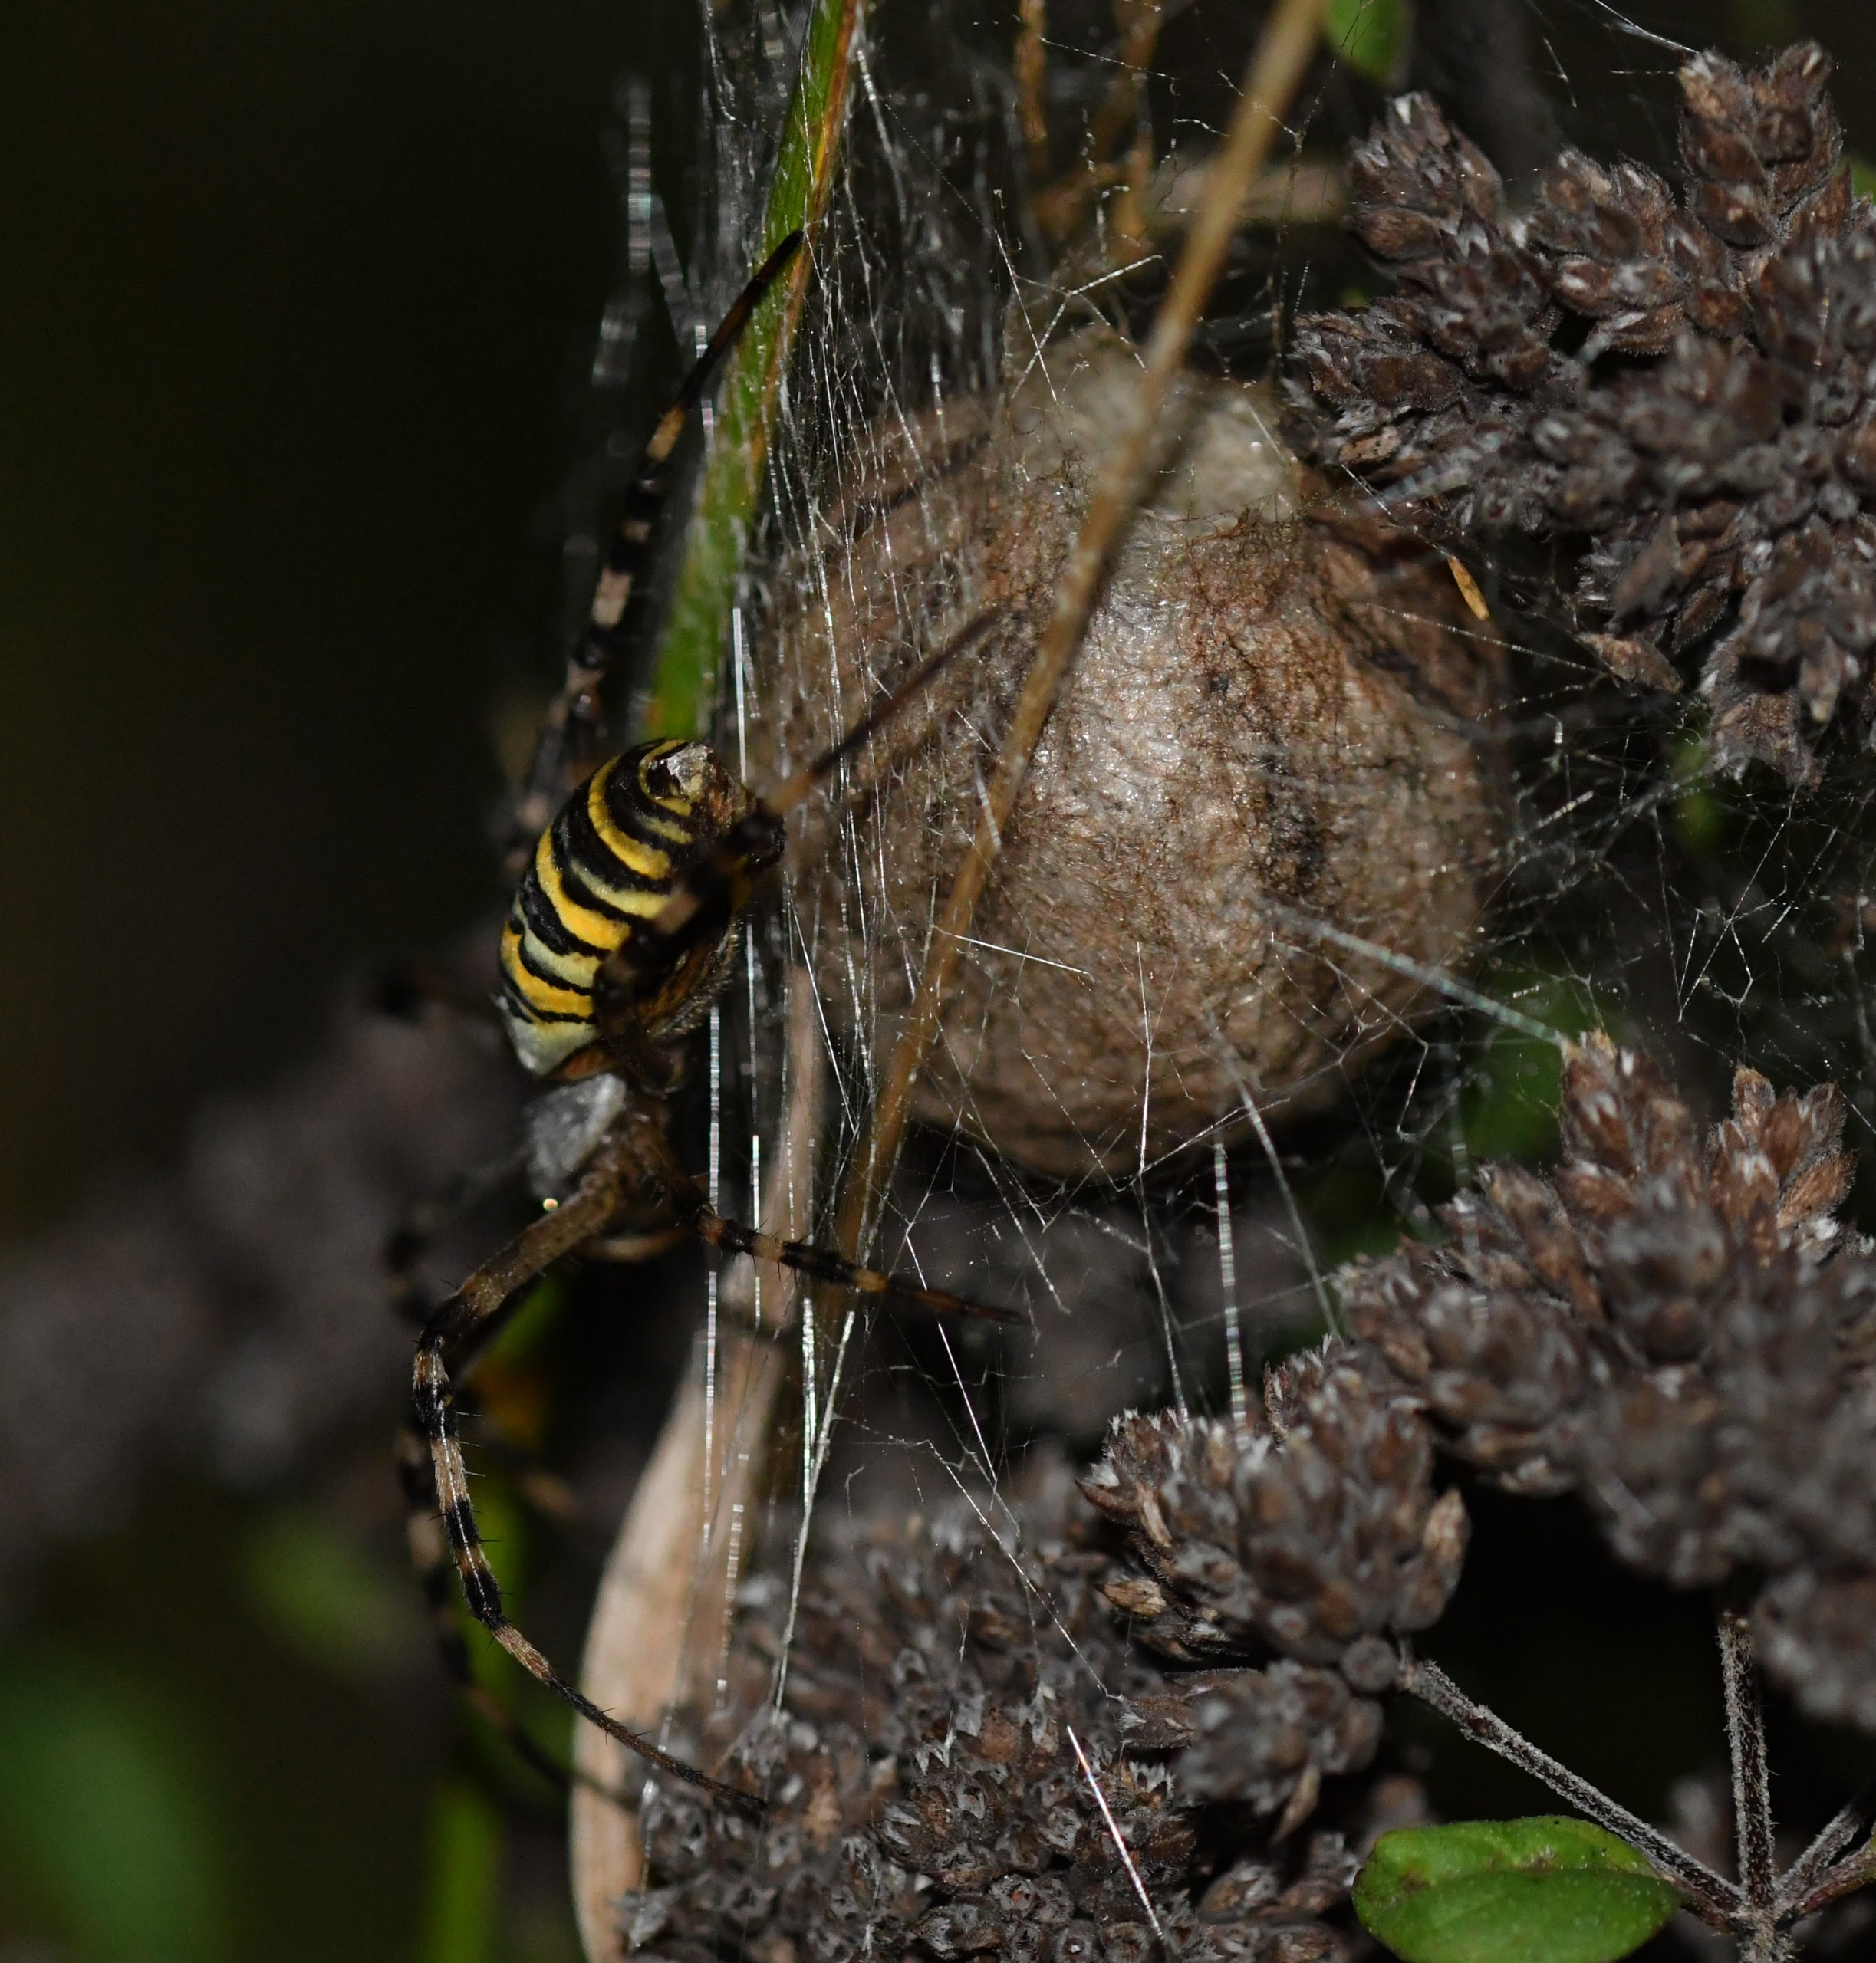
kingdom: Animalia
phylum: Arthropoda
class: Arachnida
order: Araneae
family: Araneidae
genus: Argiope
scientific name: Argiope bruennichi
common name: Hvepseedderkop
